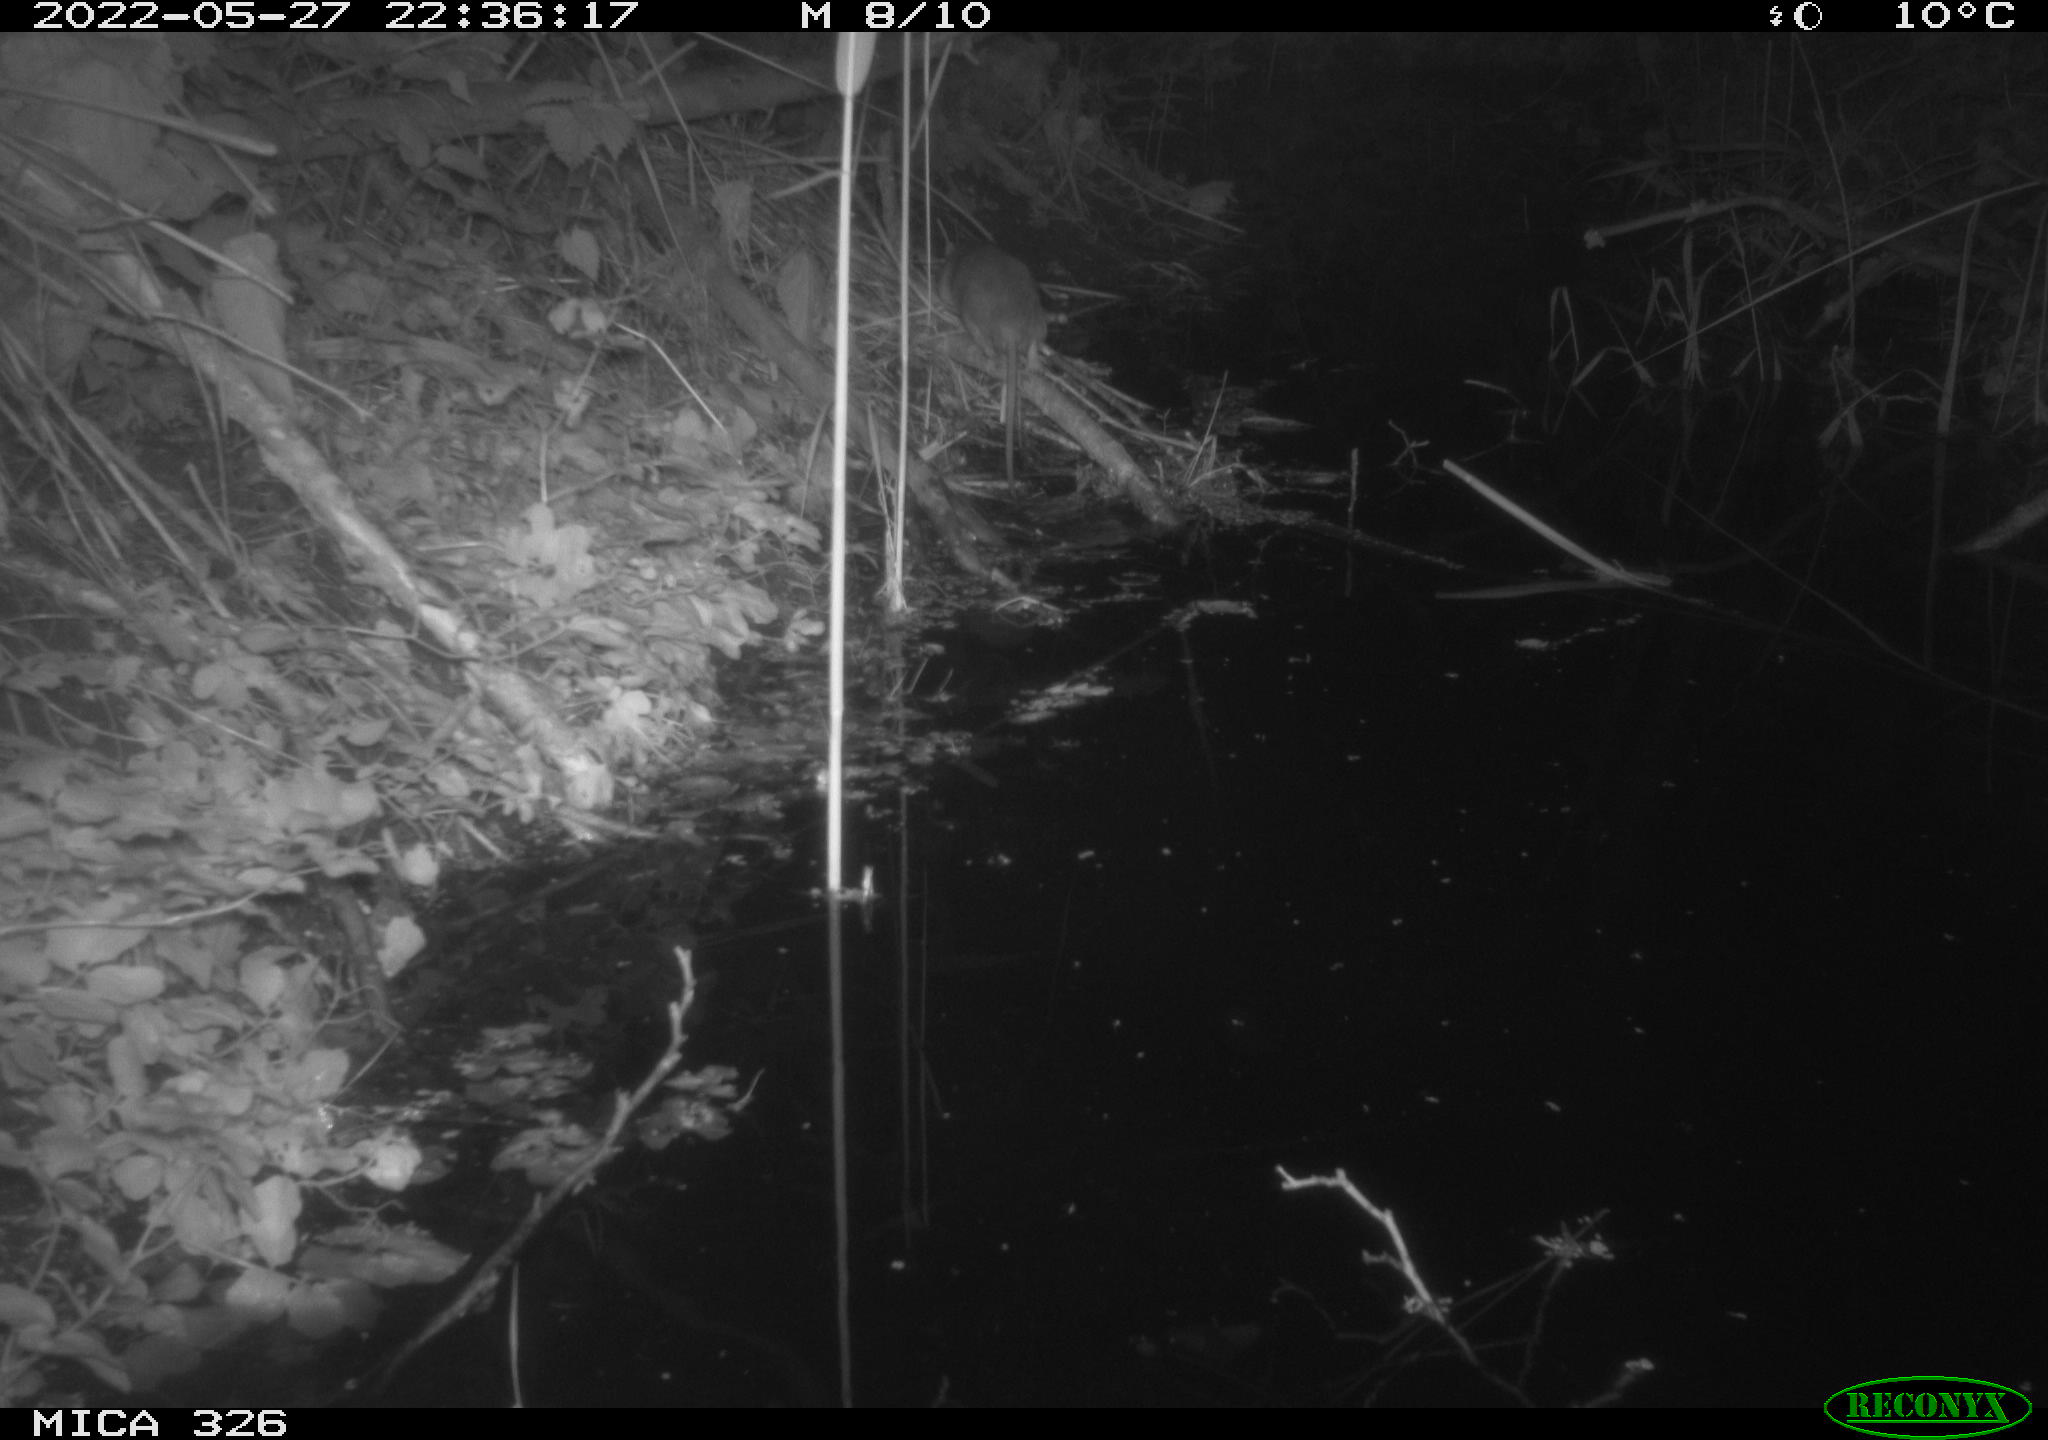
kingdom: Animalia
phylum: Chordata
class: Mammalia
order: Rodentia
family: Muridae
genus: Rattus
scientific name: Rattus norvegicus
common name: Brown rat
